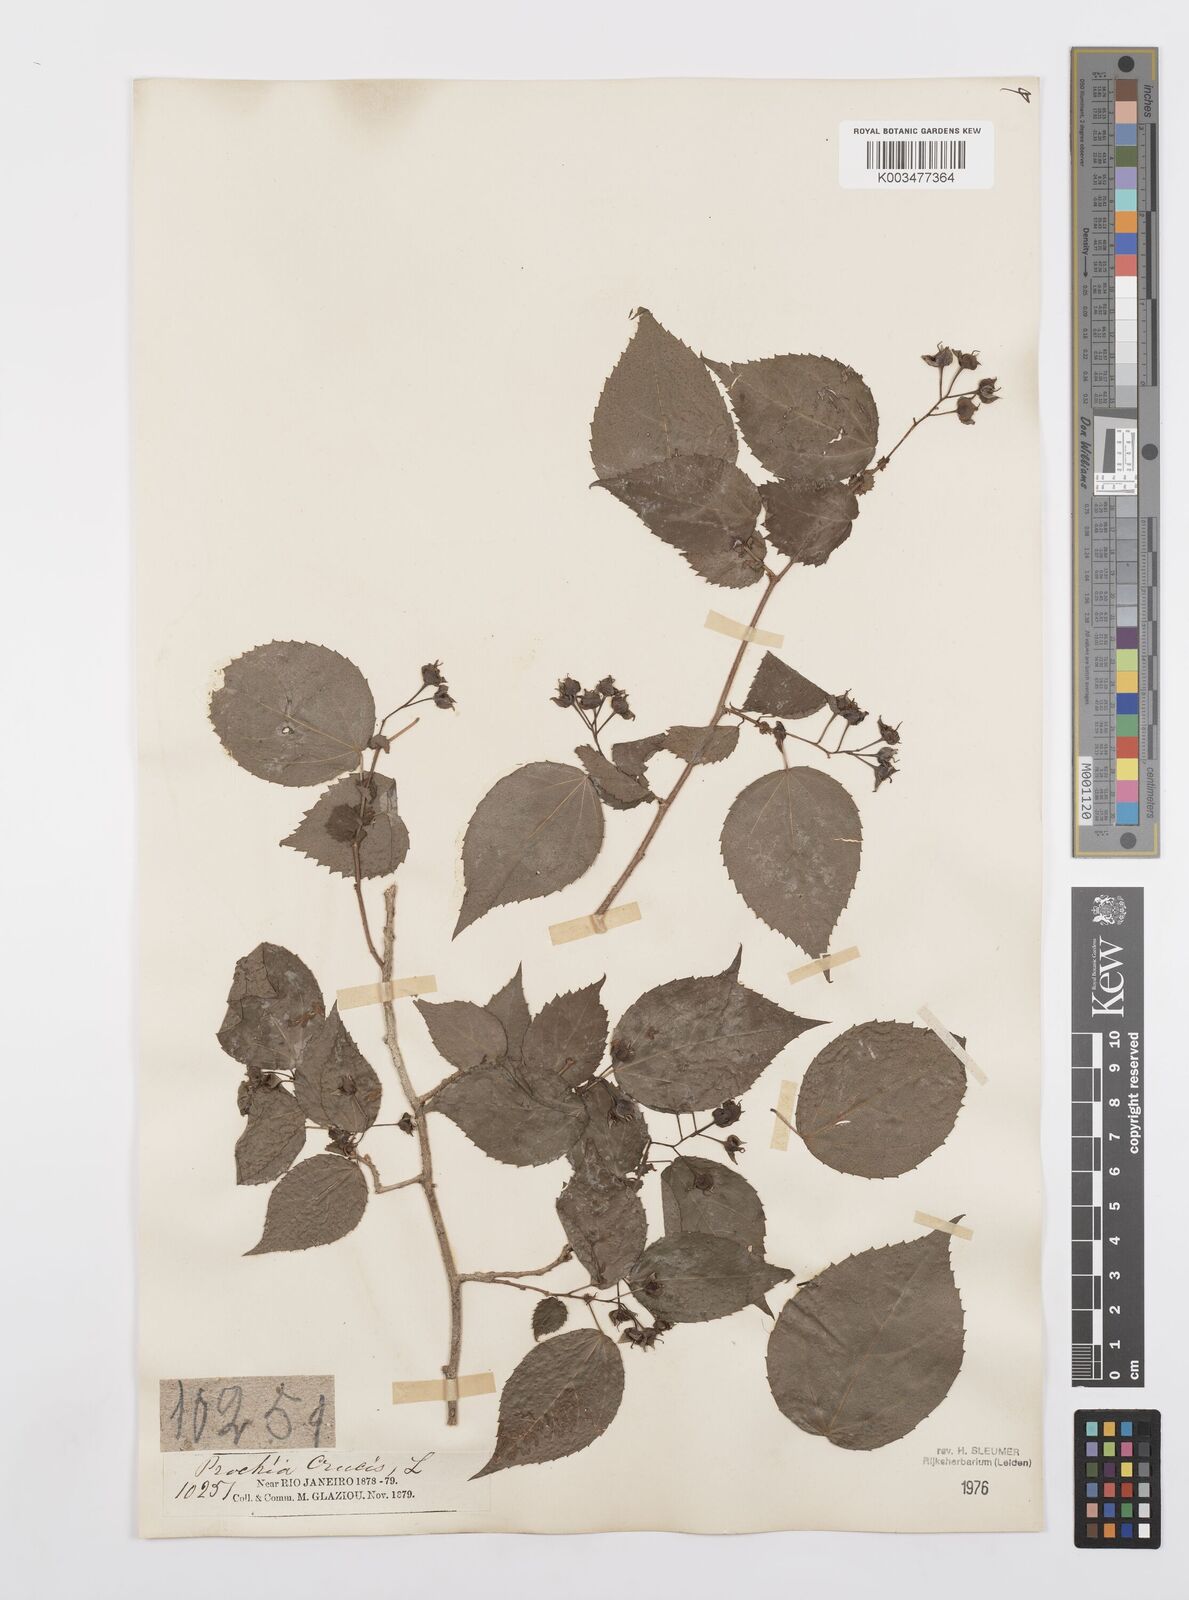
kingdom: Plantae
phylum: Tracheophyta
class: Magnoliopsida
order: Malpighiales
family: Salicaceae
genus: Prockia
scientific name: Prockia crucis
